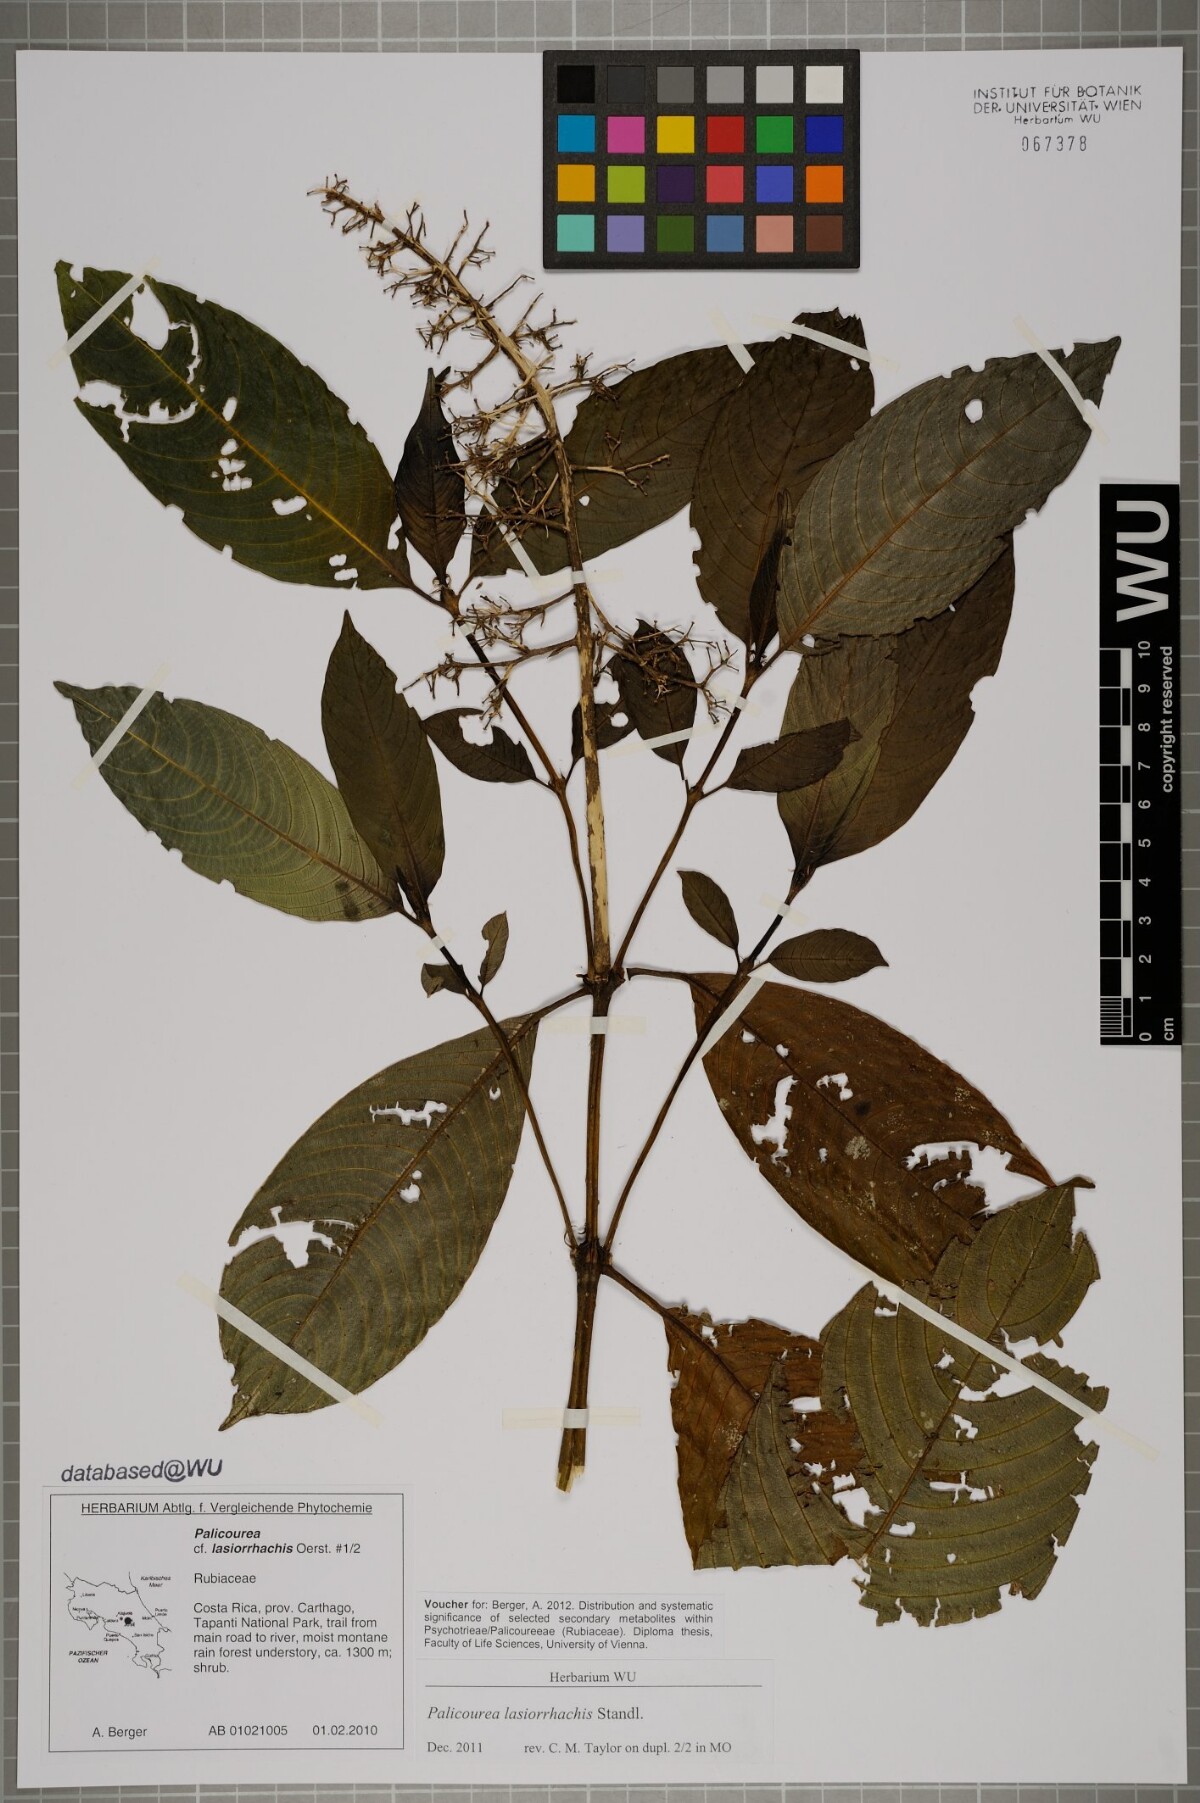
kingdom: Plantae
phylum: Tracheophyta
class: Magnoliopsida
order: Gentianales
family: Rubiaceae
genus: Palicourea
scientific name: Palicourea lasiorrhachis
